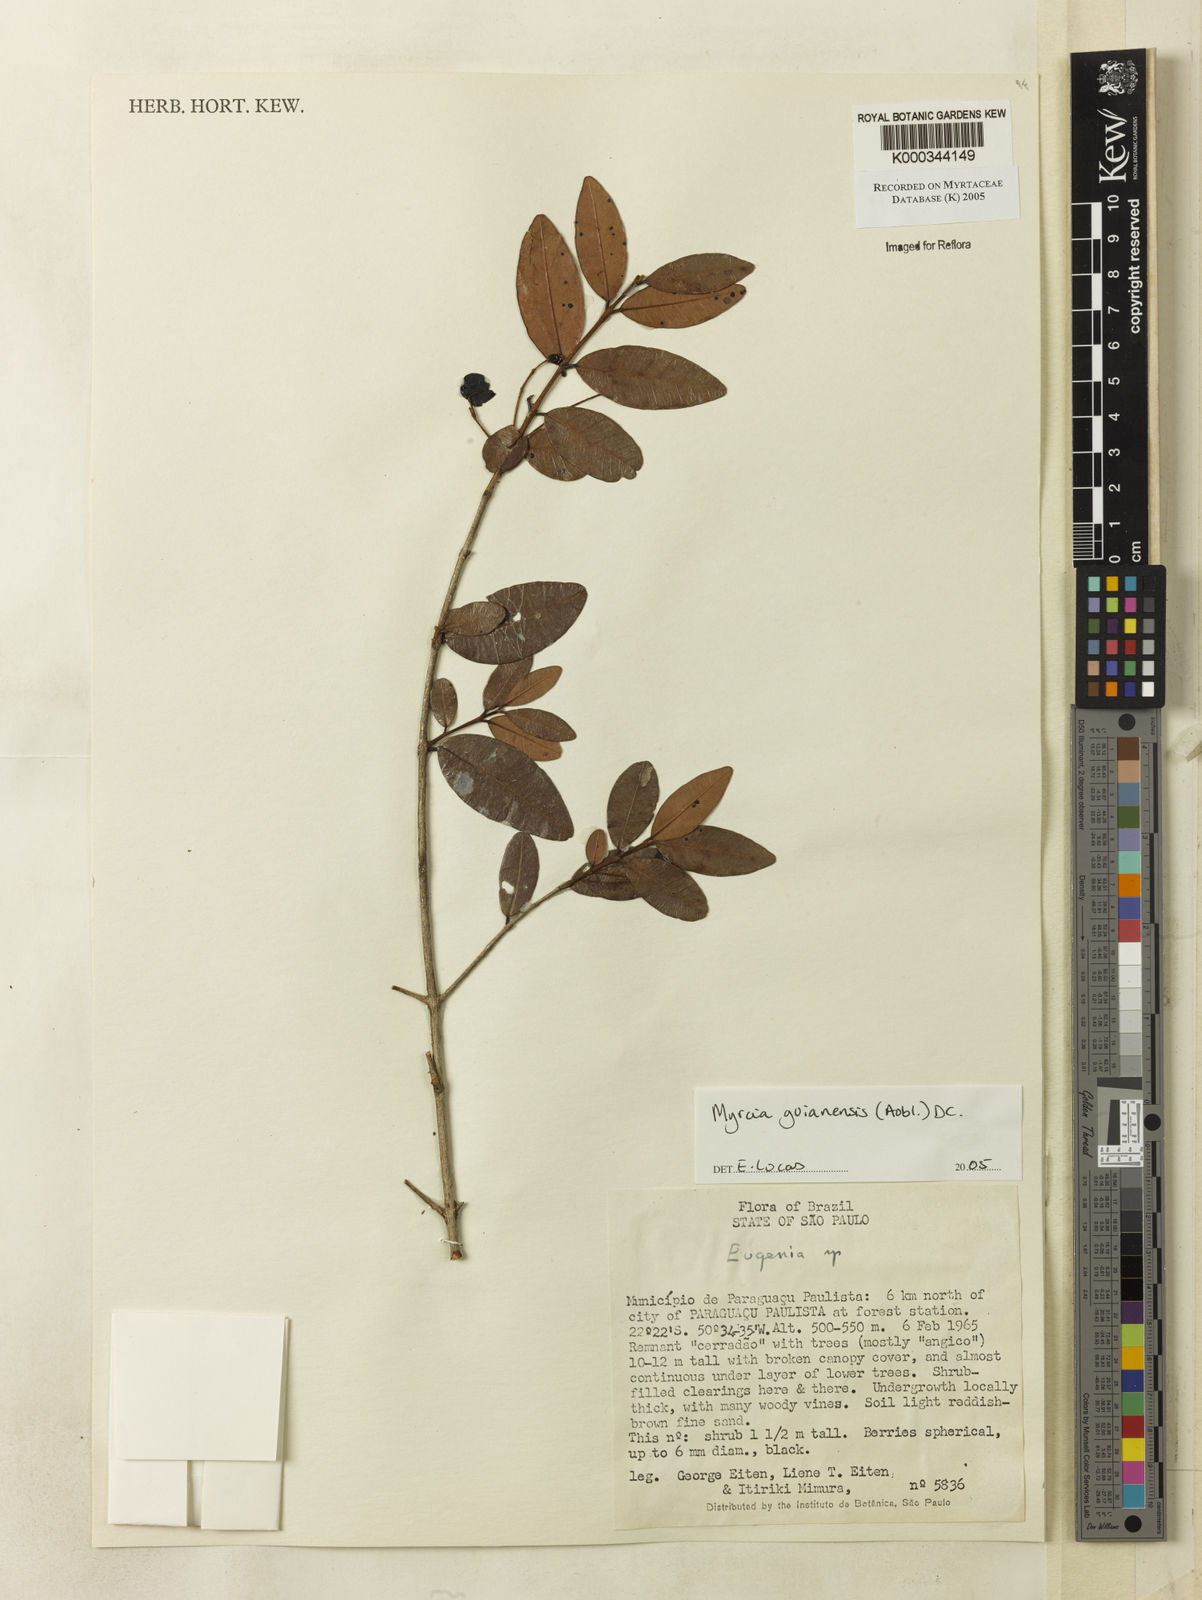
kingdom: Plantae
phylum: Tracheophyta
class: Magnoliopsida
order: Myrtales
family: Myrtaceae
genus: Myrcia
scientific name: Myrcia guianensis
